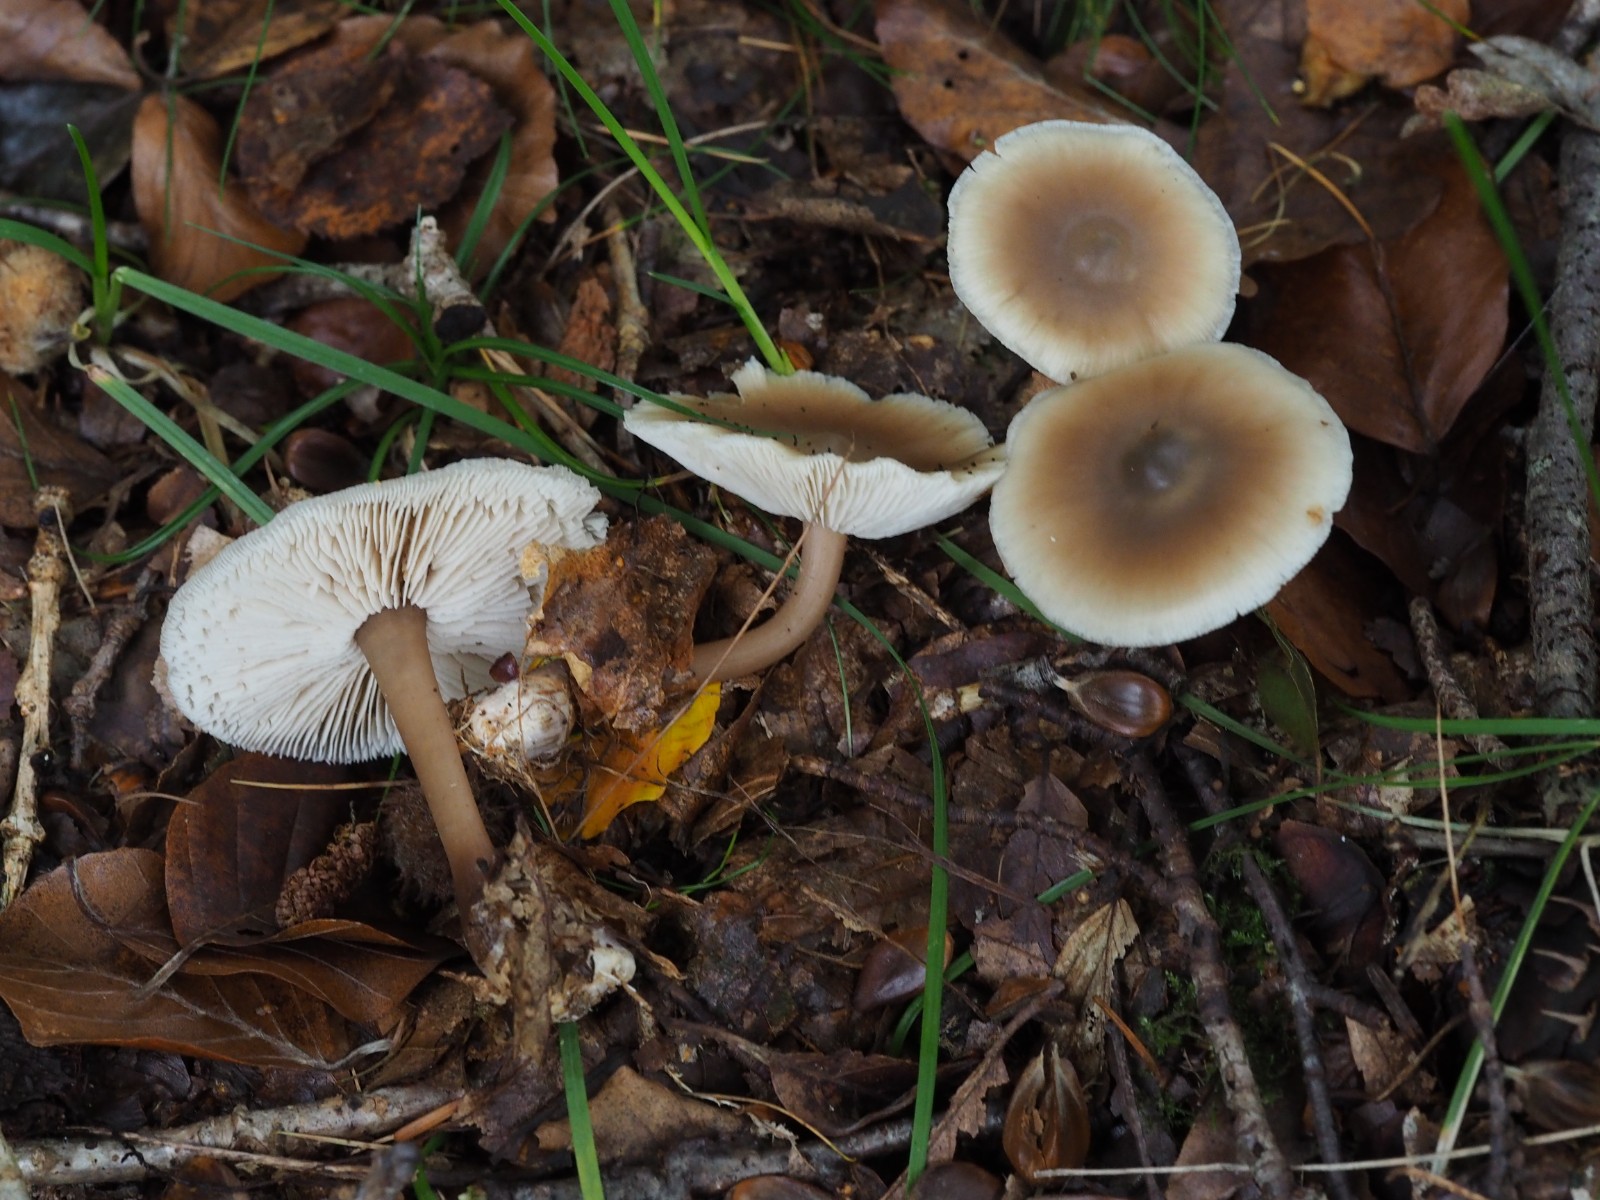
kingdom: Fungi
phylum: Basidiomycota
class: Agaricomycetes
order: Agaricales
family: Omphalotaceae
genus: Rhodocollybia
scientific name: Rhodocollybia asema
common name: horngrå fladhat
